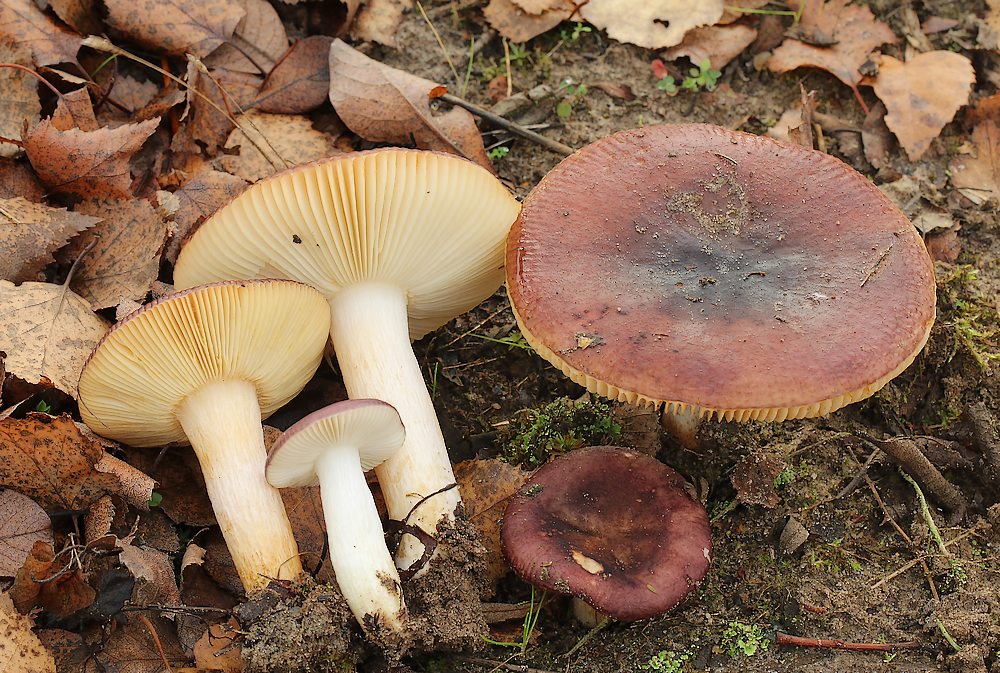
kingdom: Fungi
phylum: Basidiomycota
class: Agaricomycetes
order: Russulales
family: Russulaceae
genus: Russula
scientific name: Russula versicolor
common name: foranderlig skørhat
